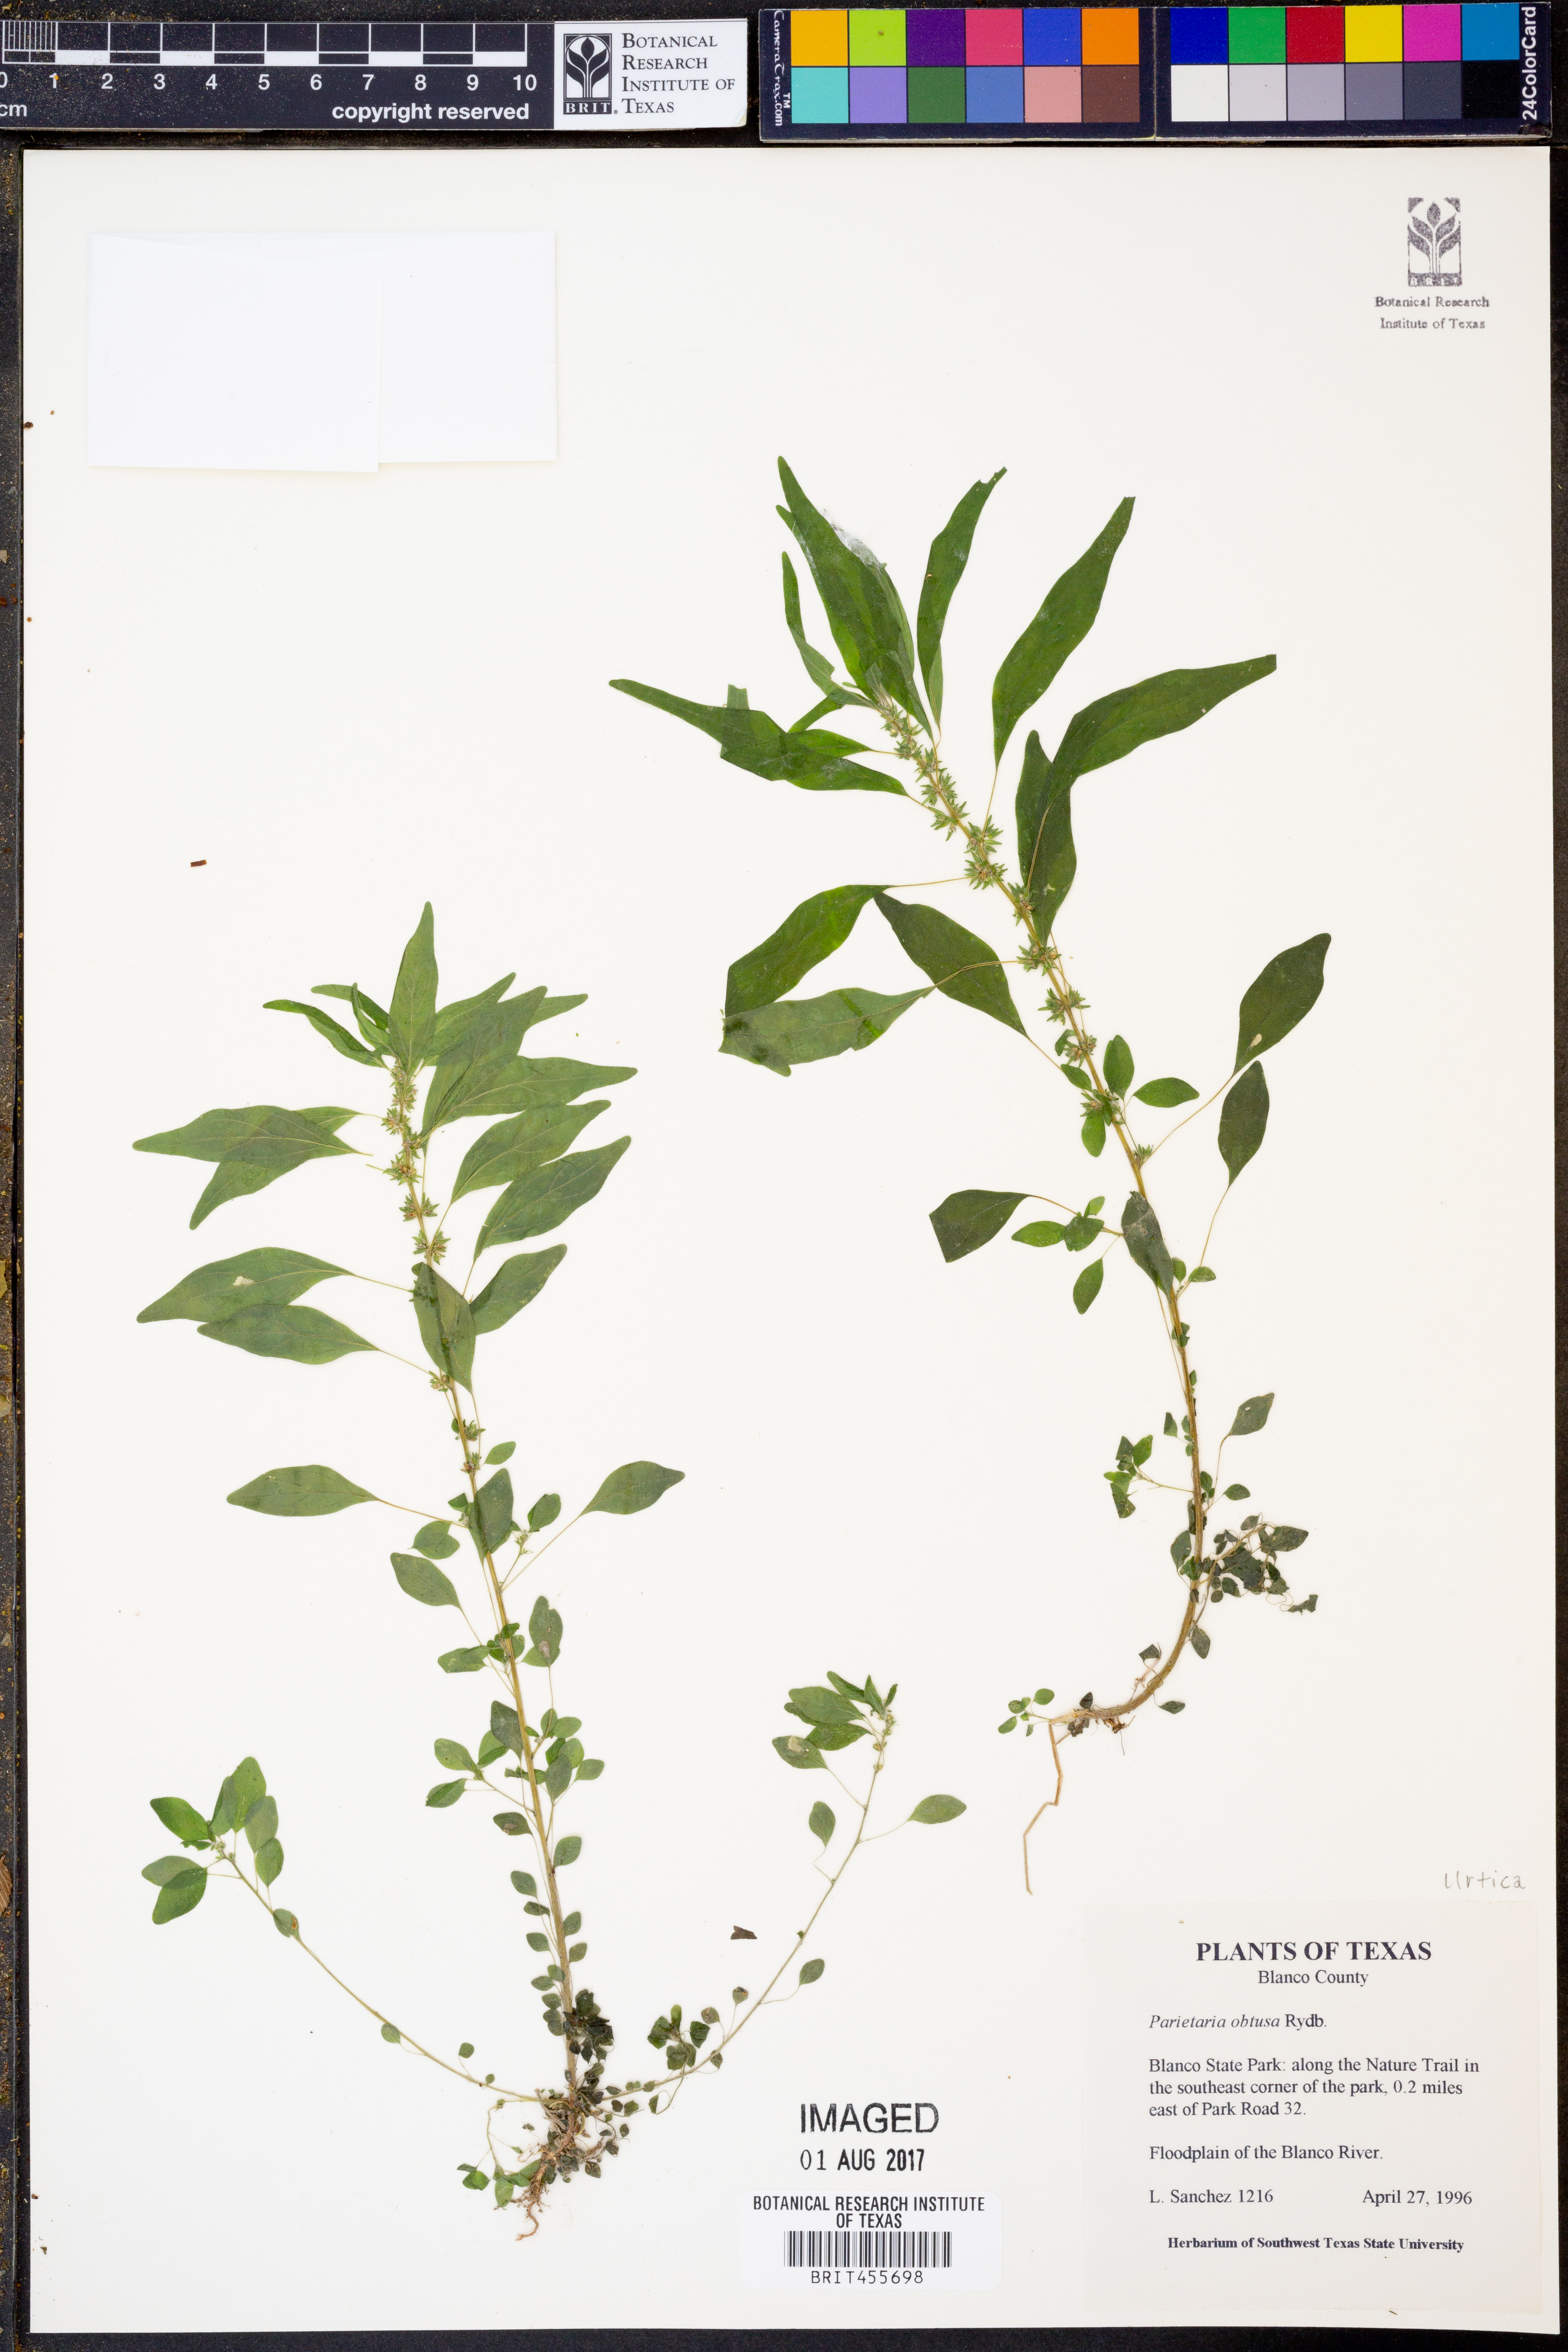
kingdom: Plantae
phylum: Tracheophyta
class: Magnoliopsida
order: Rosales
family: Urticaceae
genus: Parietaria
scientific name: Parietaria pensylvanica
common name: Pennsylvania pellitory
